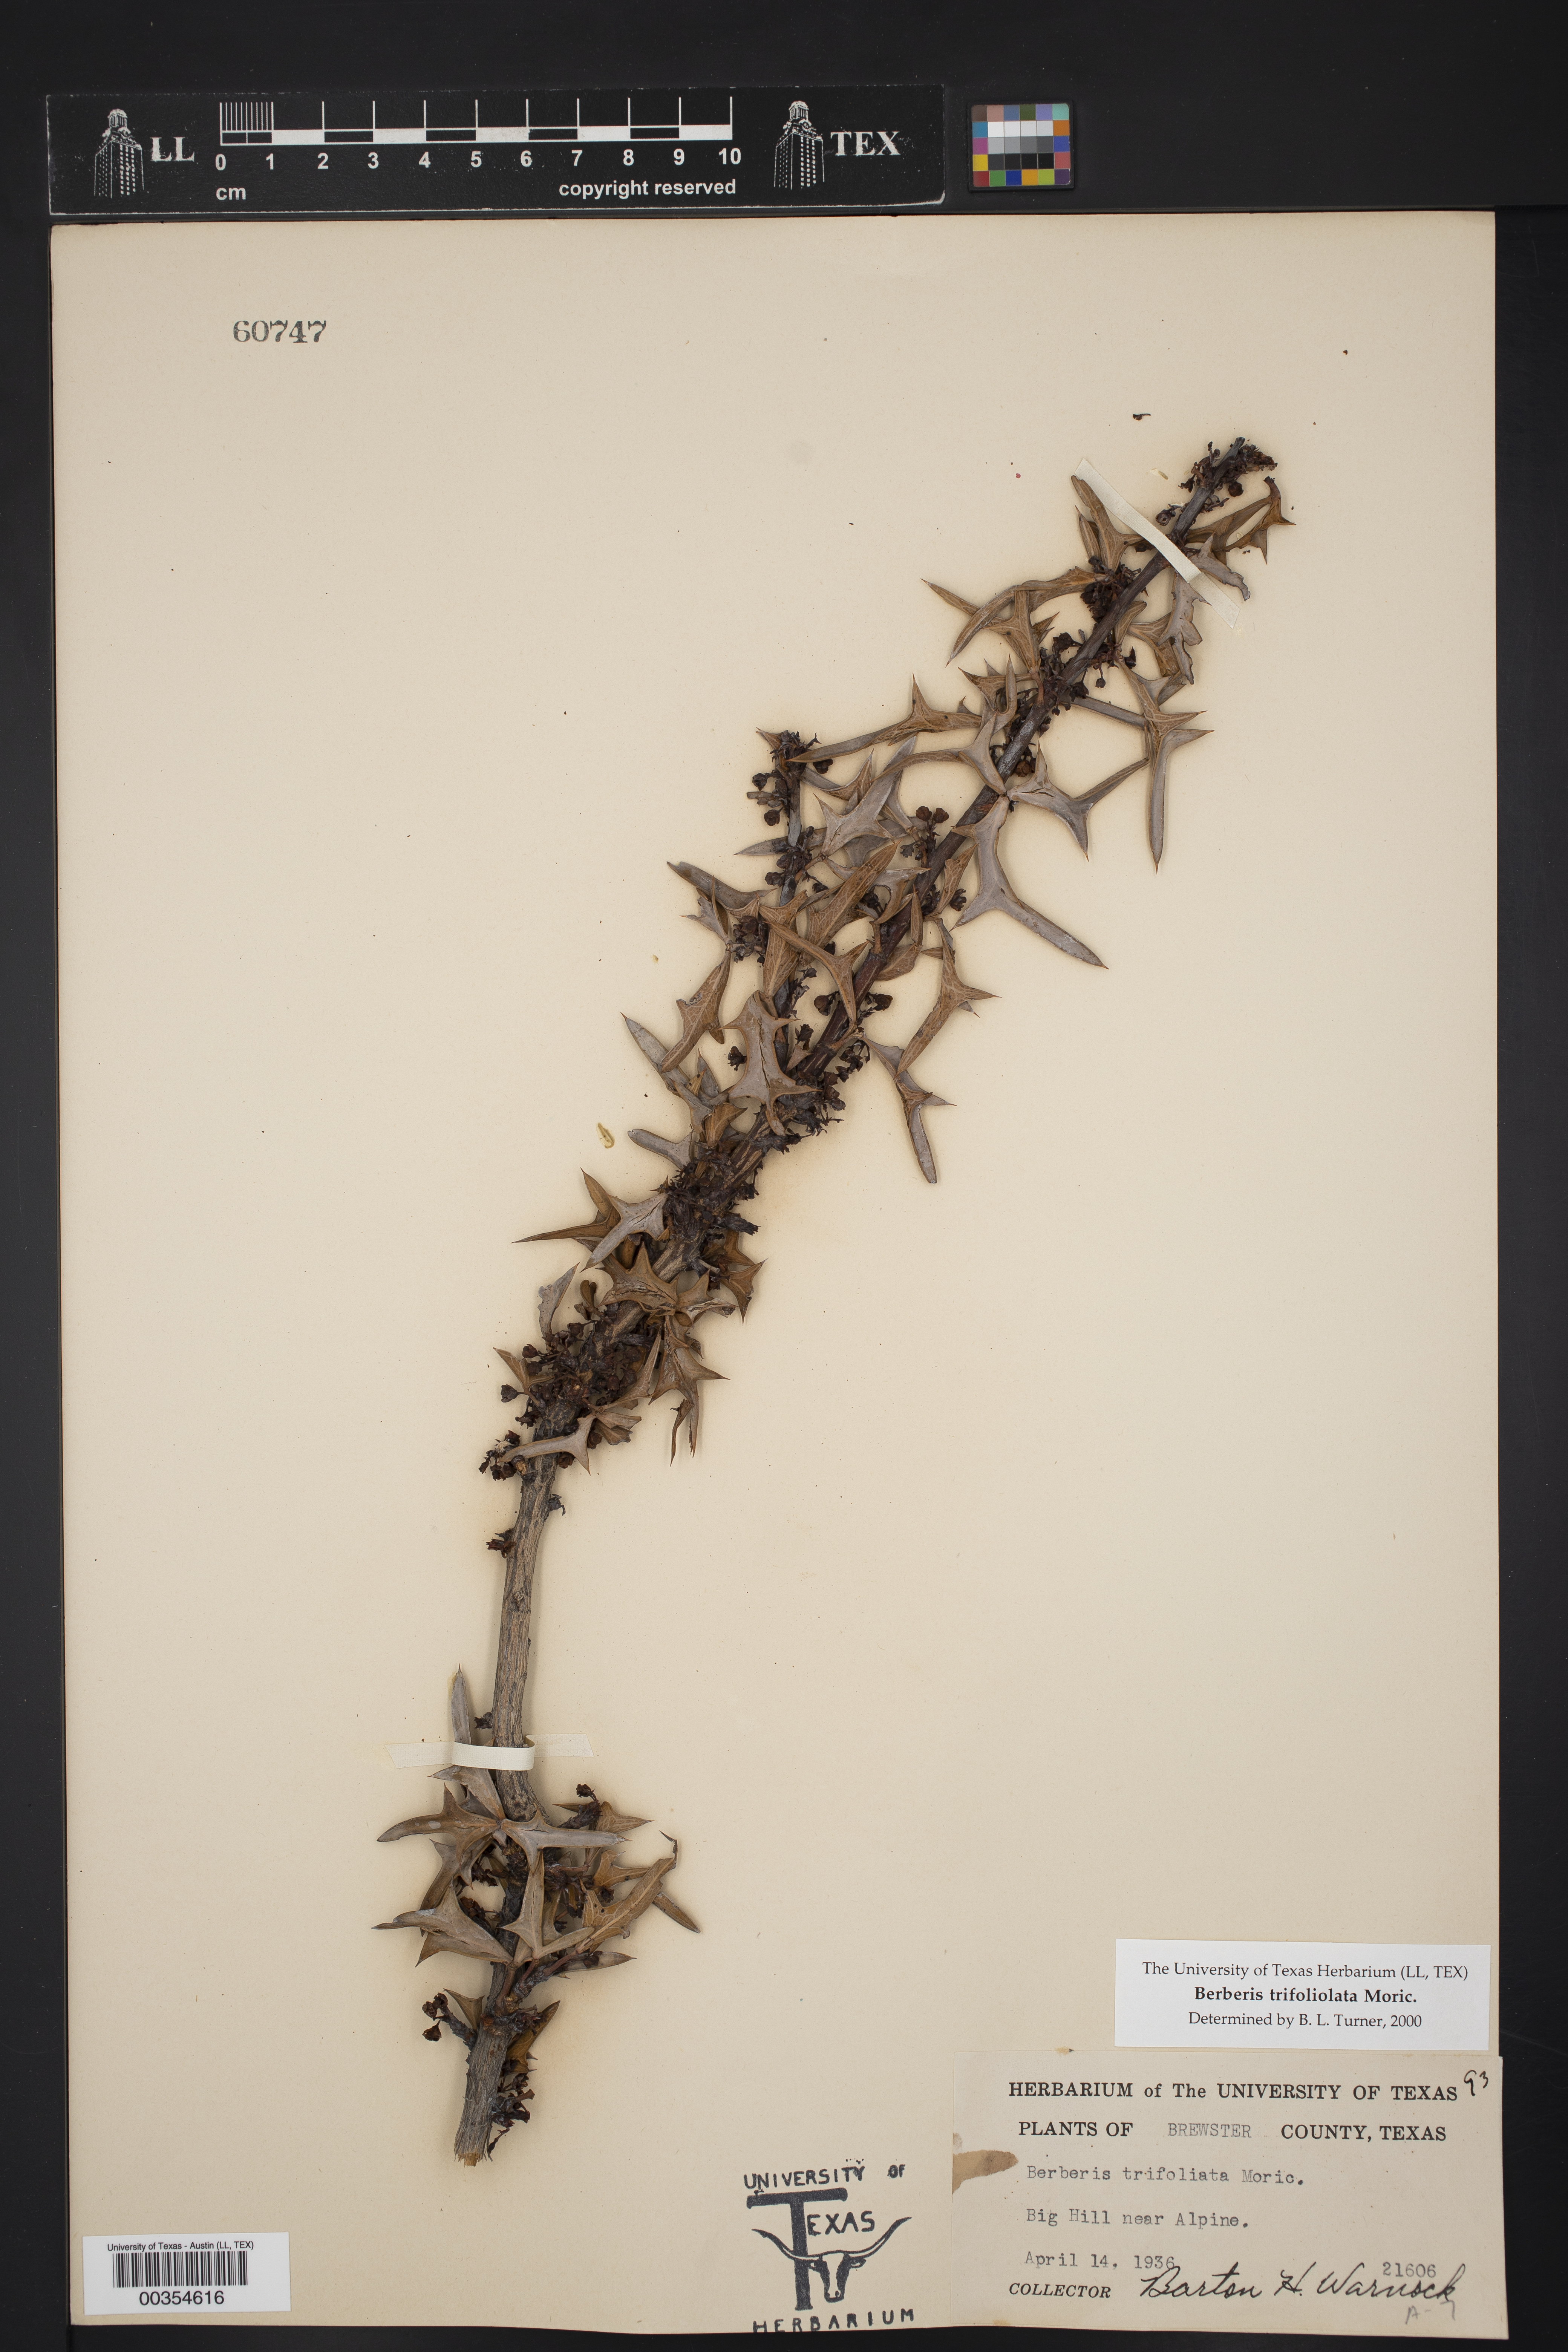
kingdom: Plantae
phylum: Tracheophyta
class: Magnoliopsida
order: Ranunculales
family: Berberidaceae
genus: Alloberberis
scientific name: Alloberberis trifoliolata
